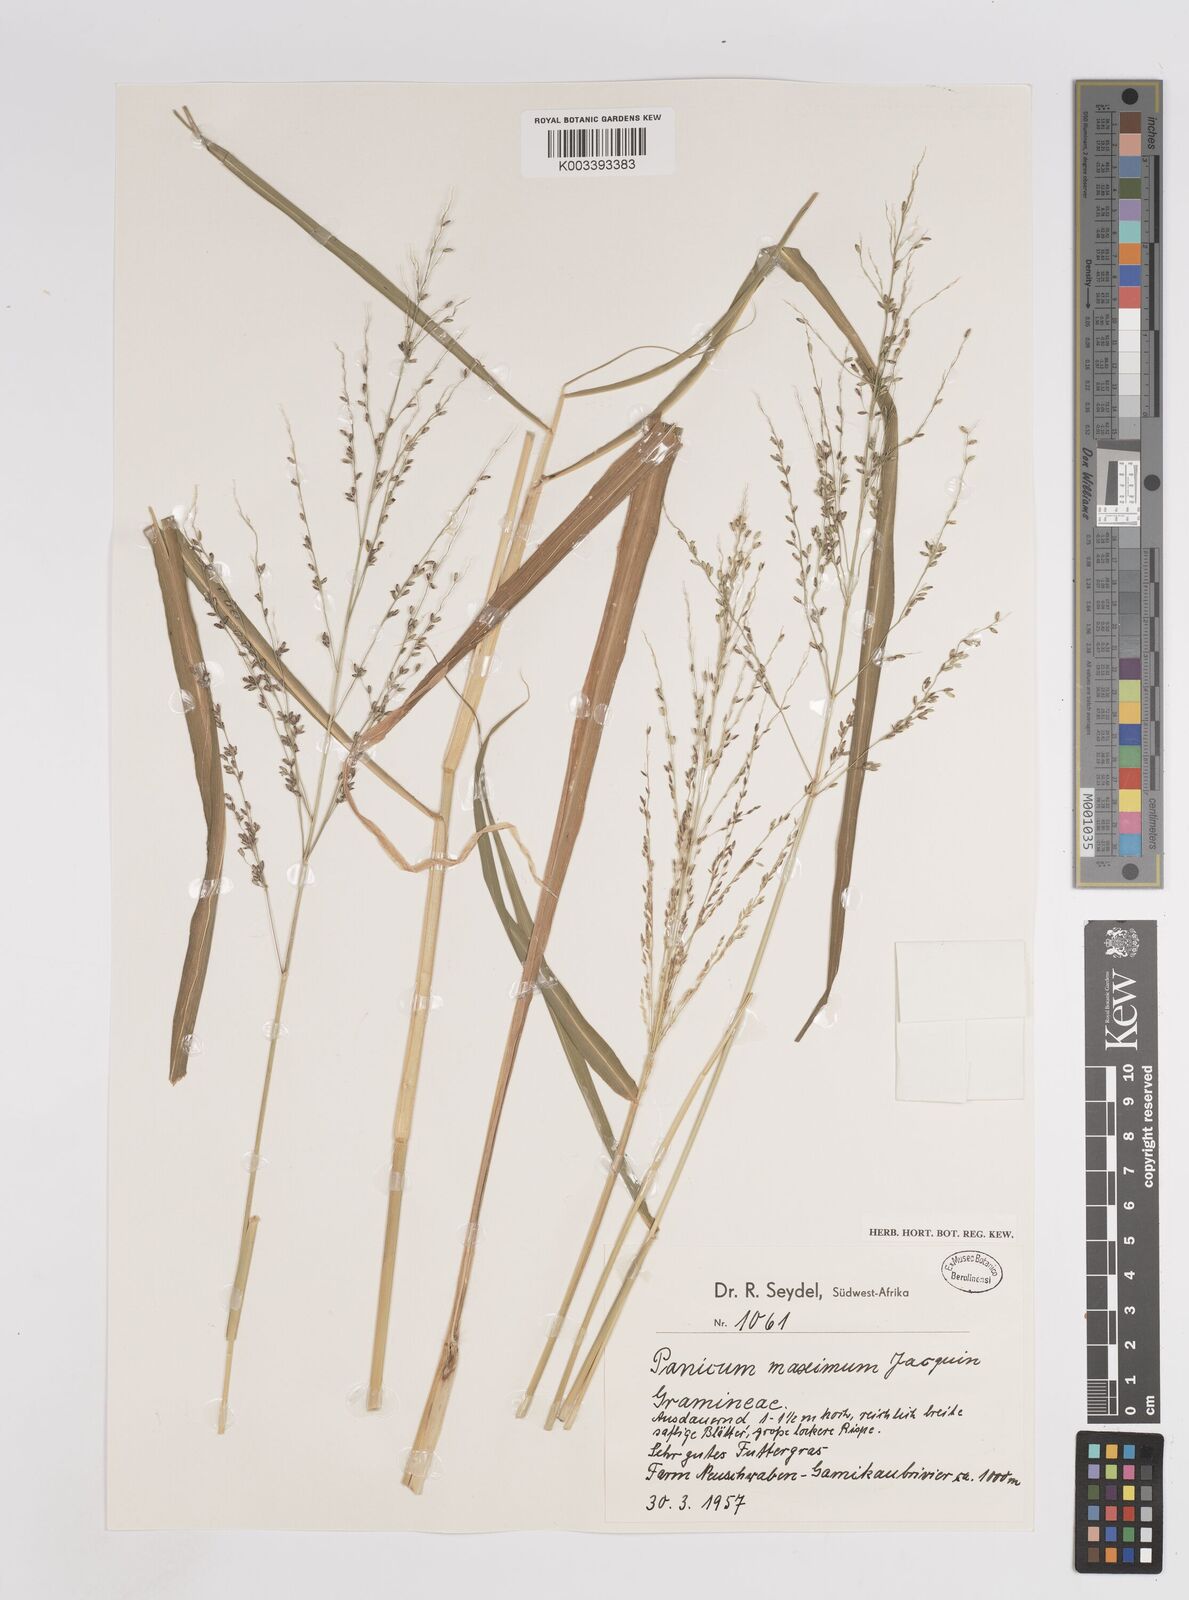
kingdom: Plantae
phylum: Tracheophyta
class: Liliopsida
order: Poales
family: Poaceae
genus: Megathyrsus
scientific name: Megathyrsus maximus
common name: Guineagrass
